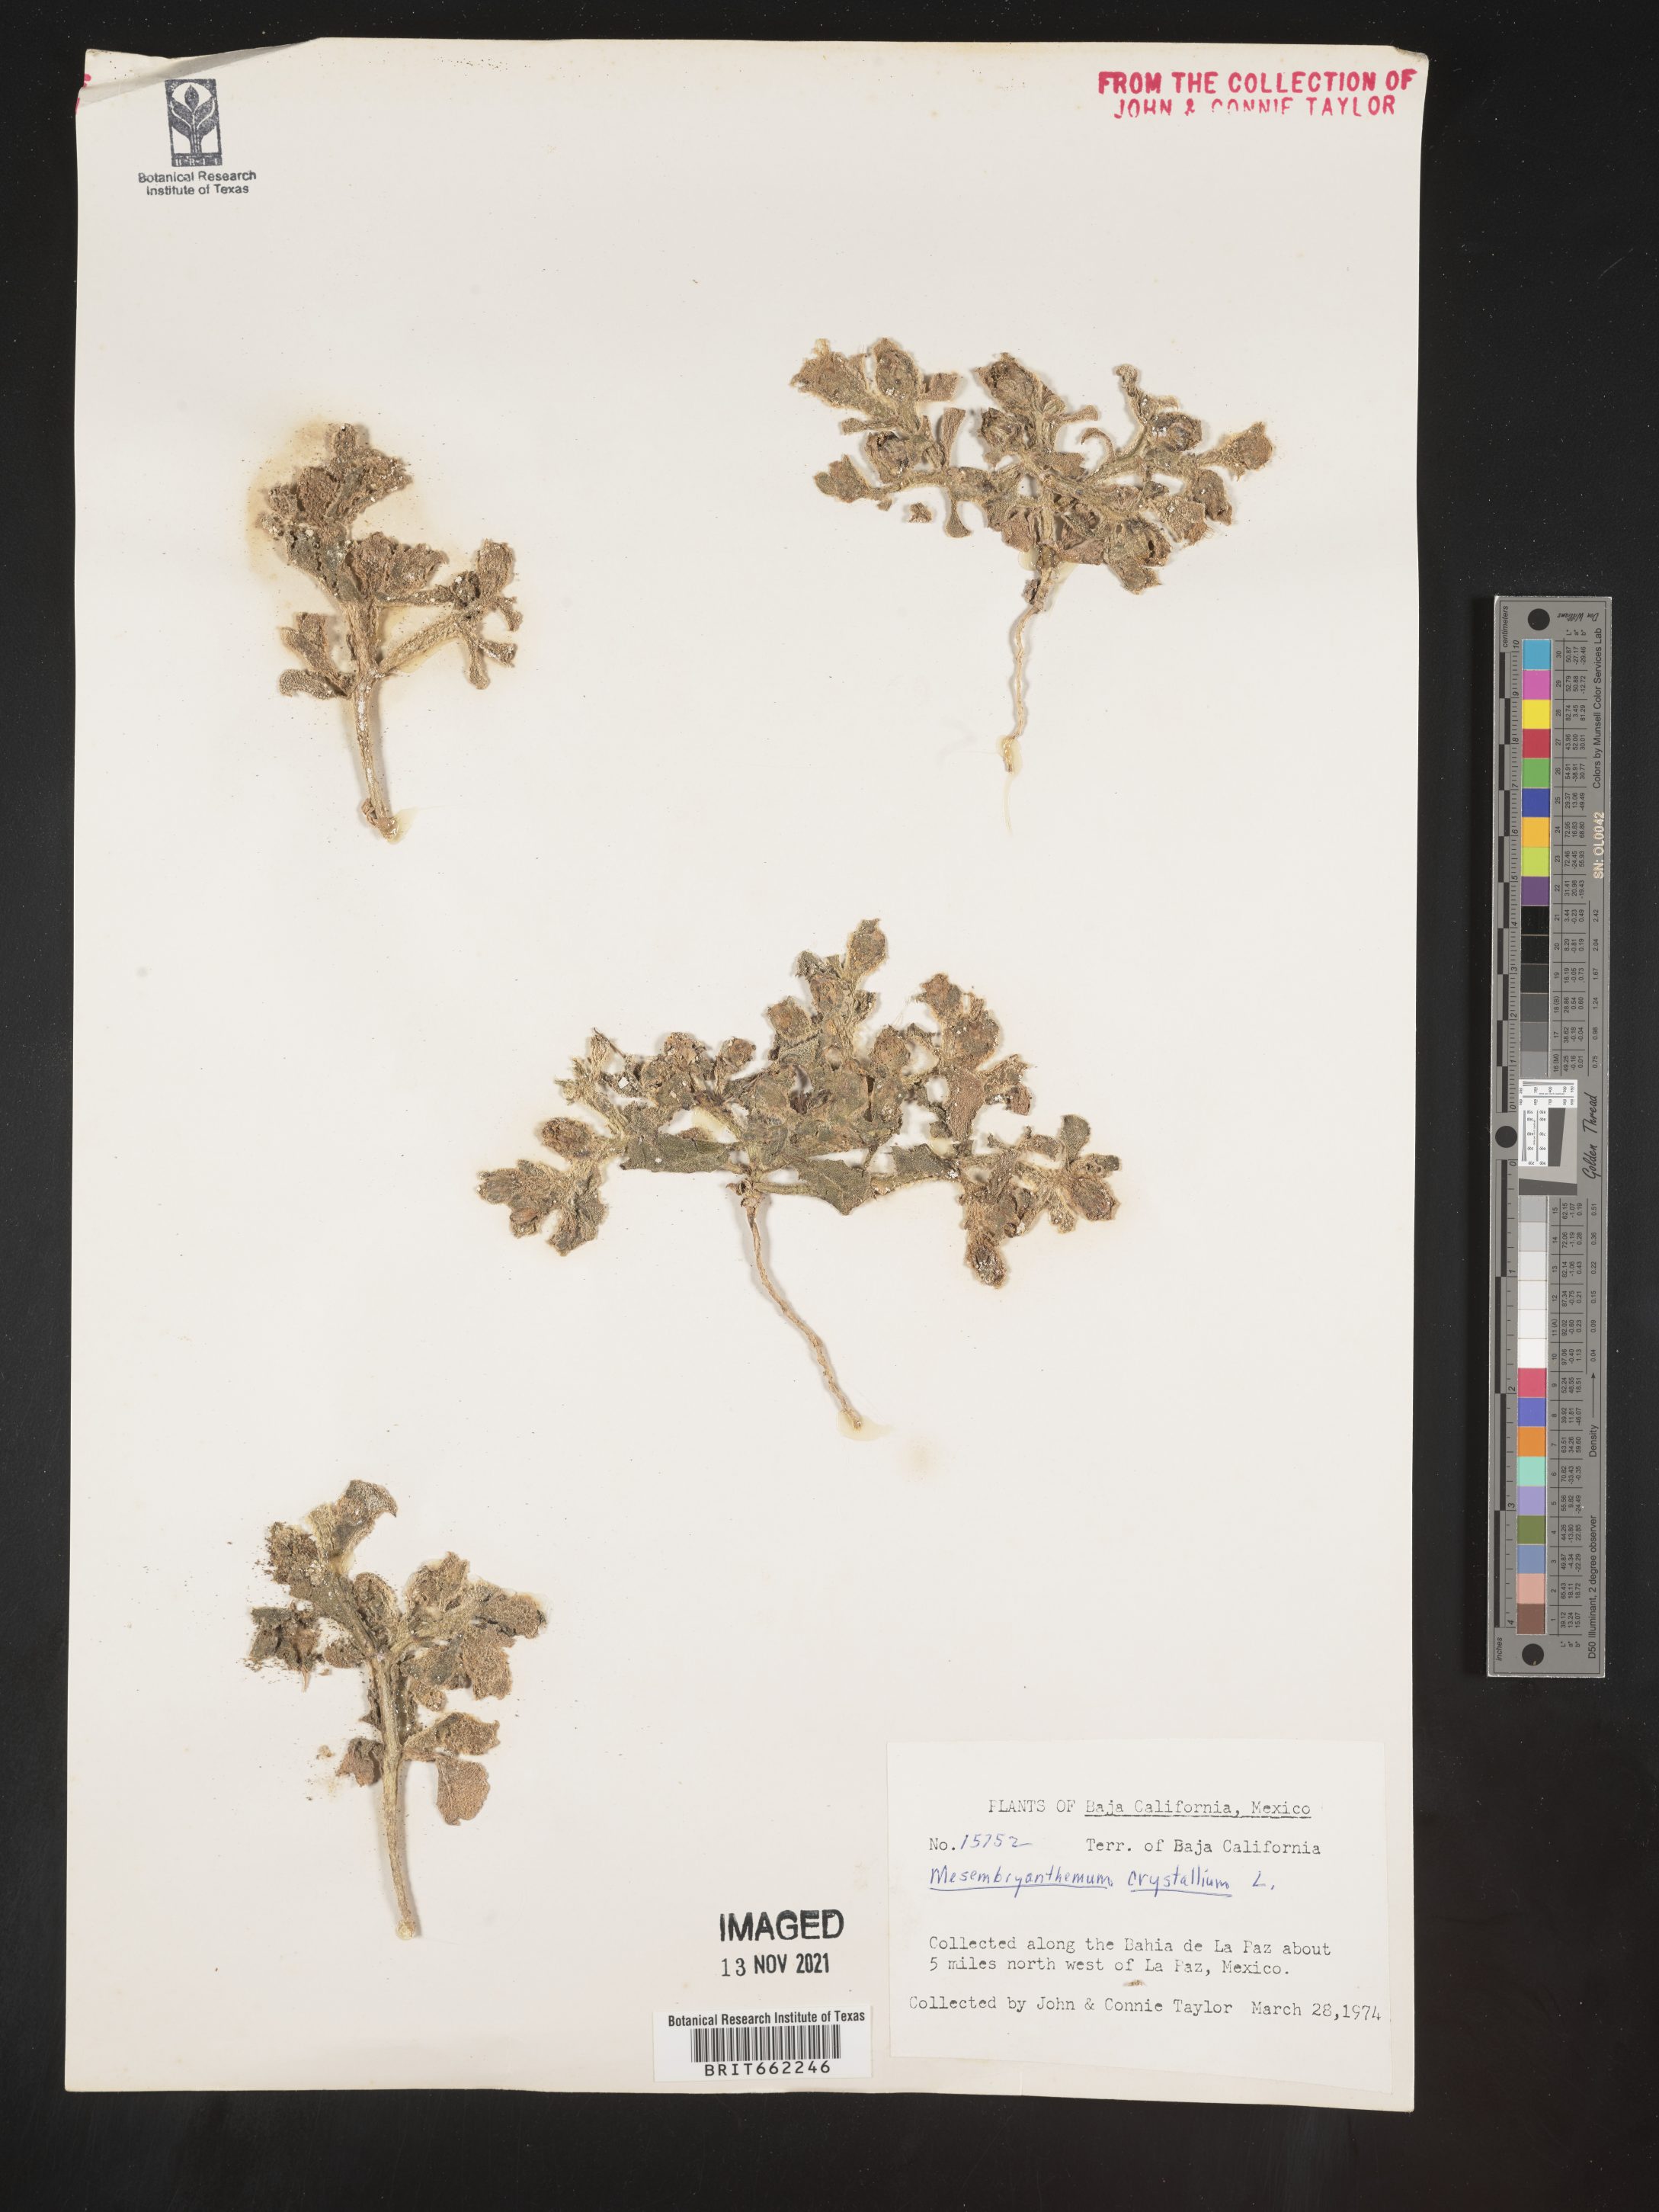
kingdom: Plantae
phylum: Tracheophyta
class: Magnoliopsida
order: Caryophyllales
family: Aizoaceae
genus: Mesembryanthemum
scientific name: Mesembryanthemum
